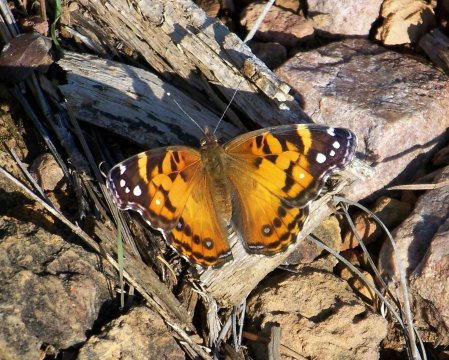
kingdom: Animalia
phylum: Arthropoda
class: Insecta
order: Lepidoptera
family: Nymphalidae
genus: Vanessa
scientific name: Vanessa virginiensis
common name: American Lady
